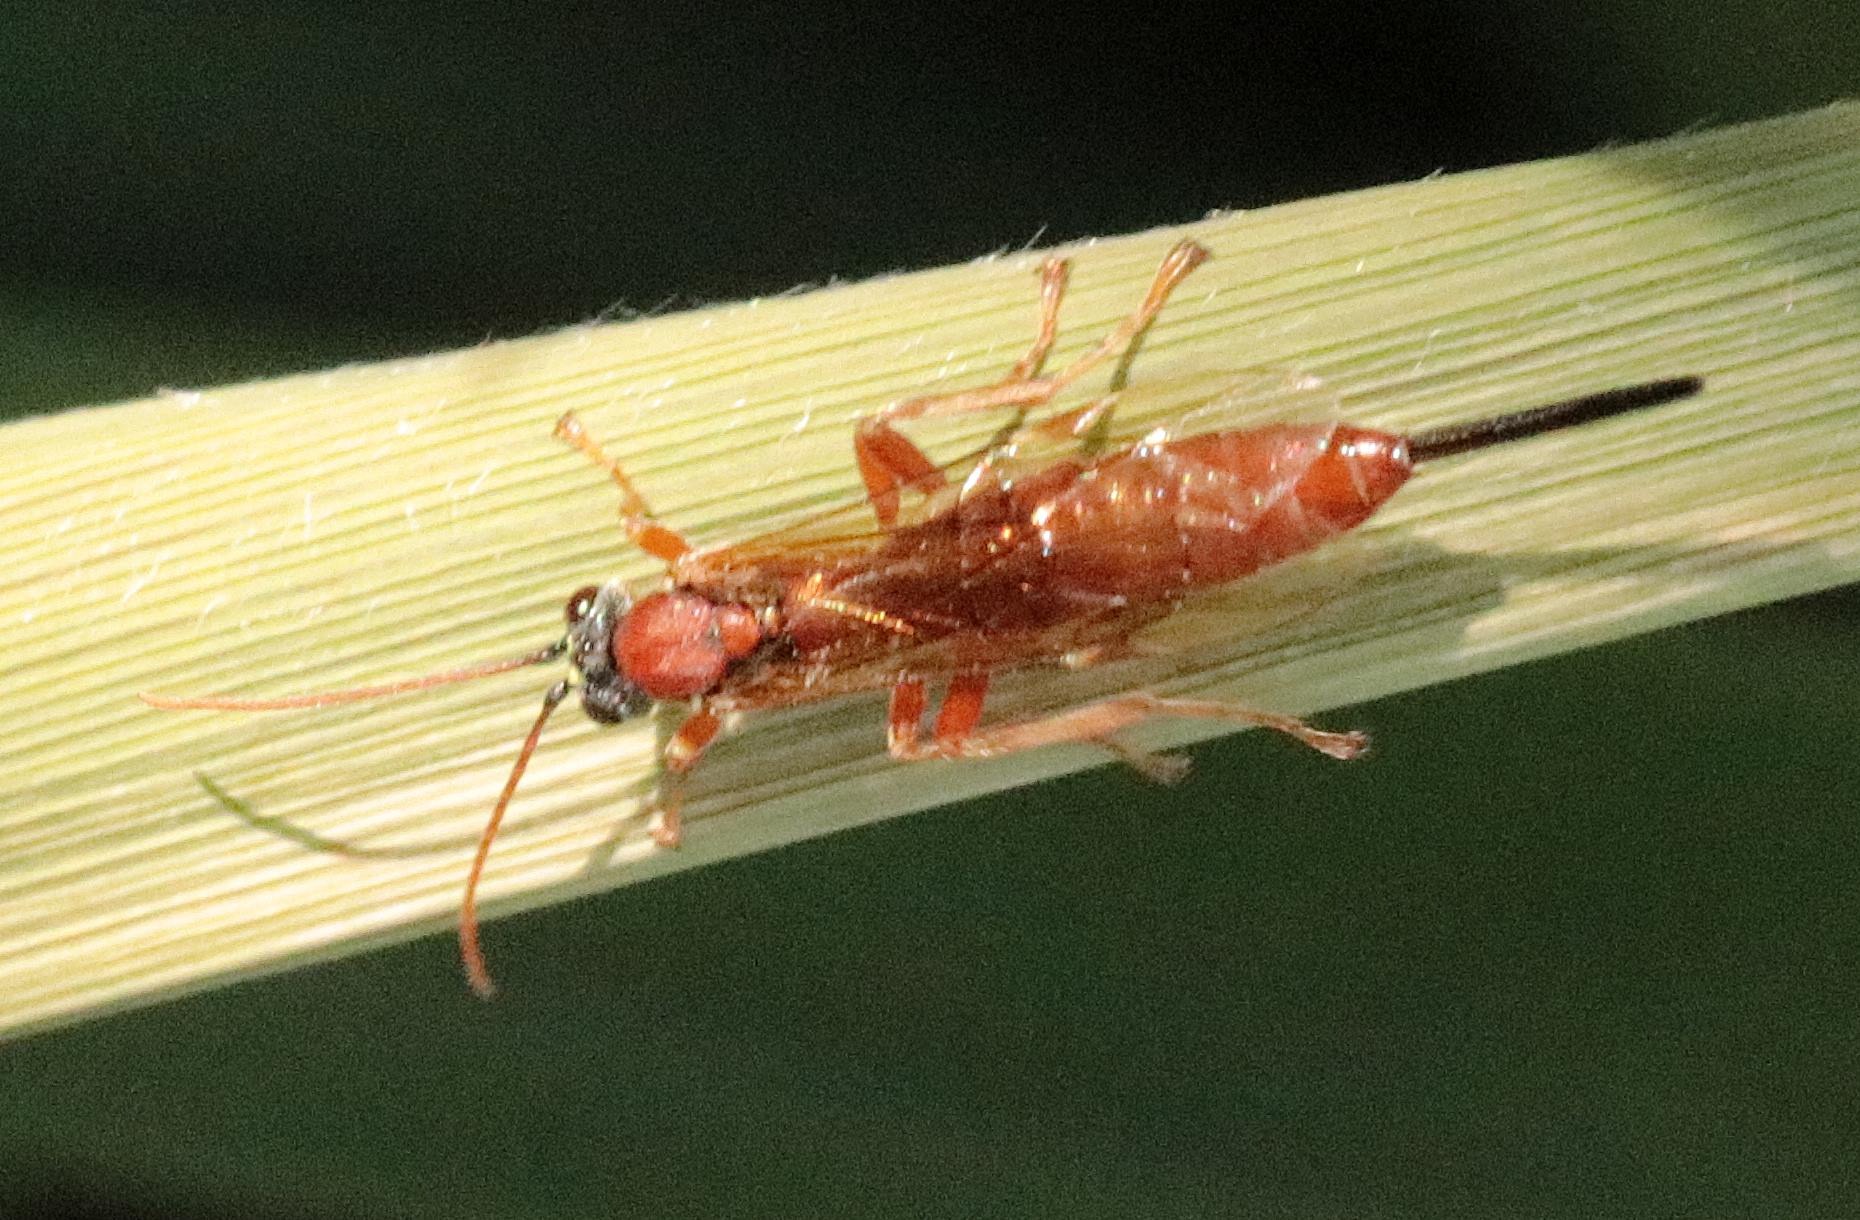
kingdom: Animalia
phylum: Arthropoda
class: Insecta
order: Hymenoptera
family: Ichneumonidae
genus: Fredegunda
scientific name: Fredegunda diluta
